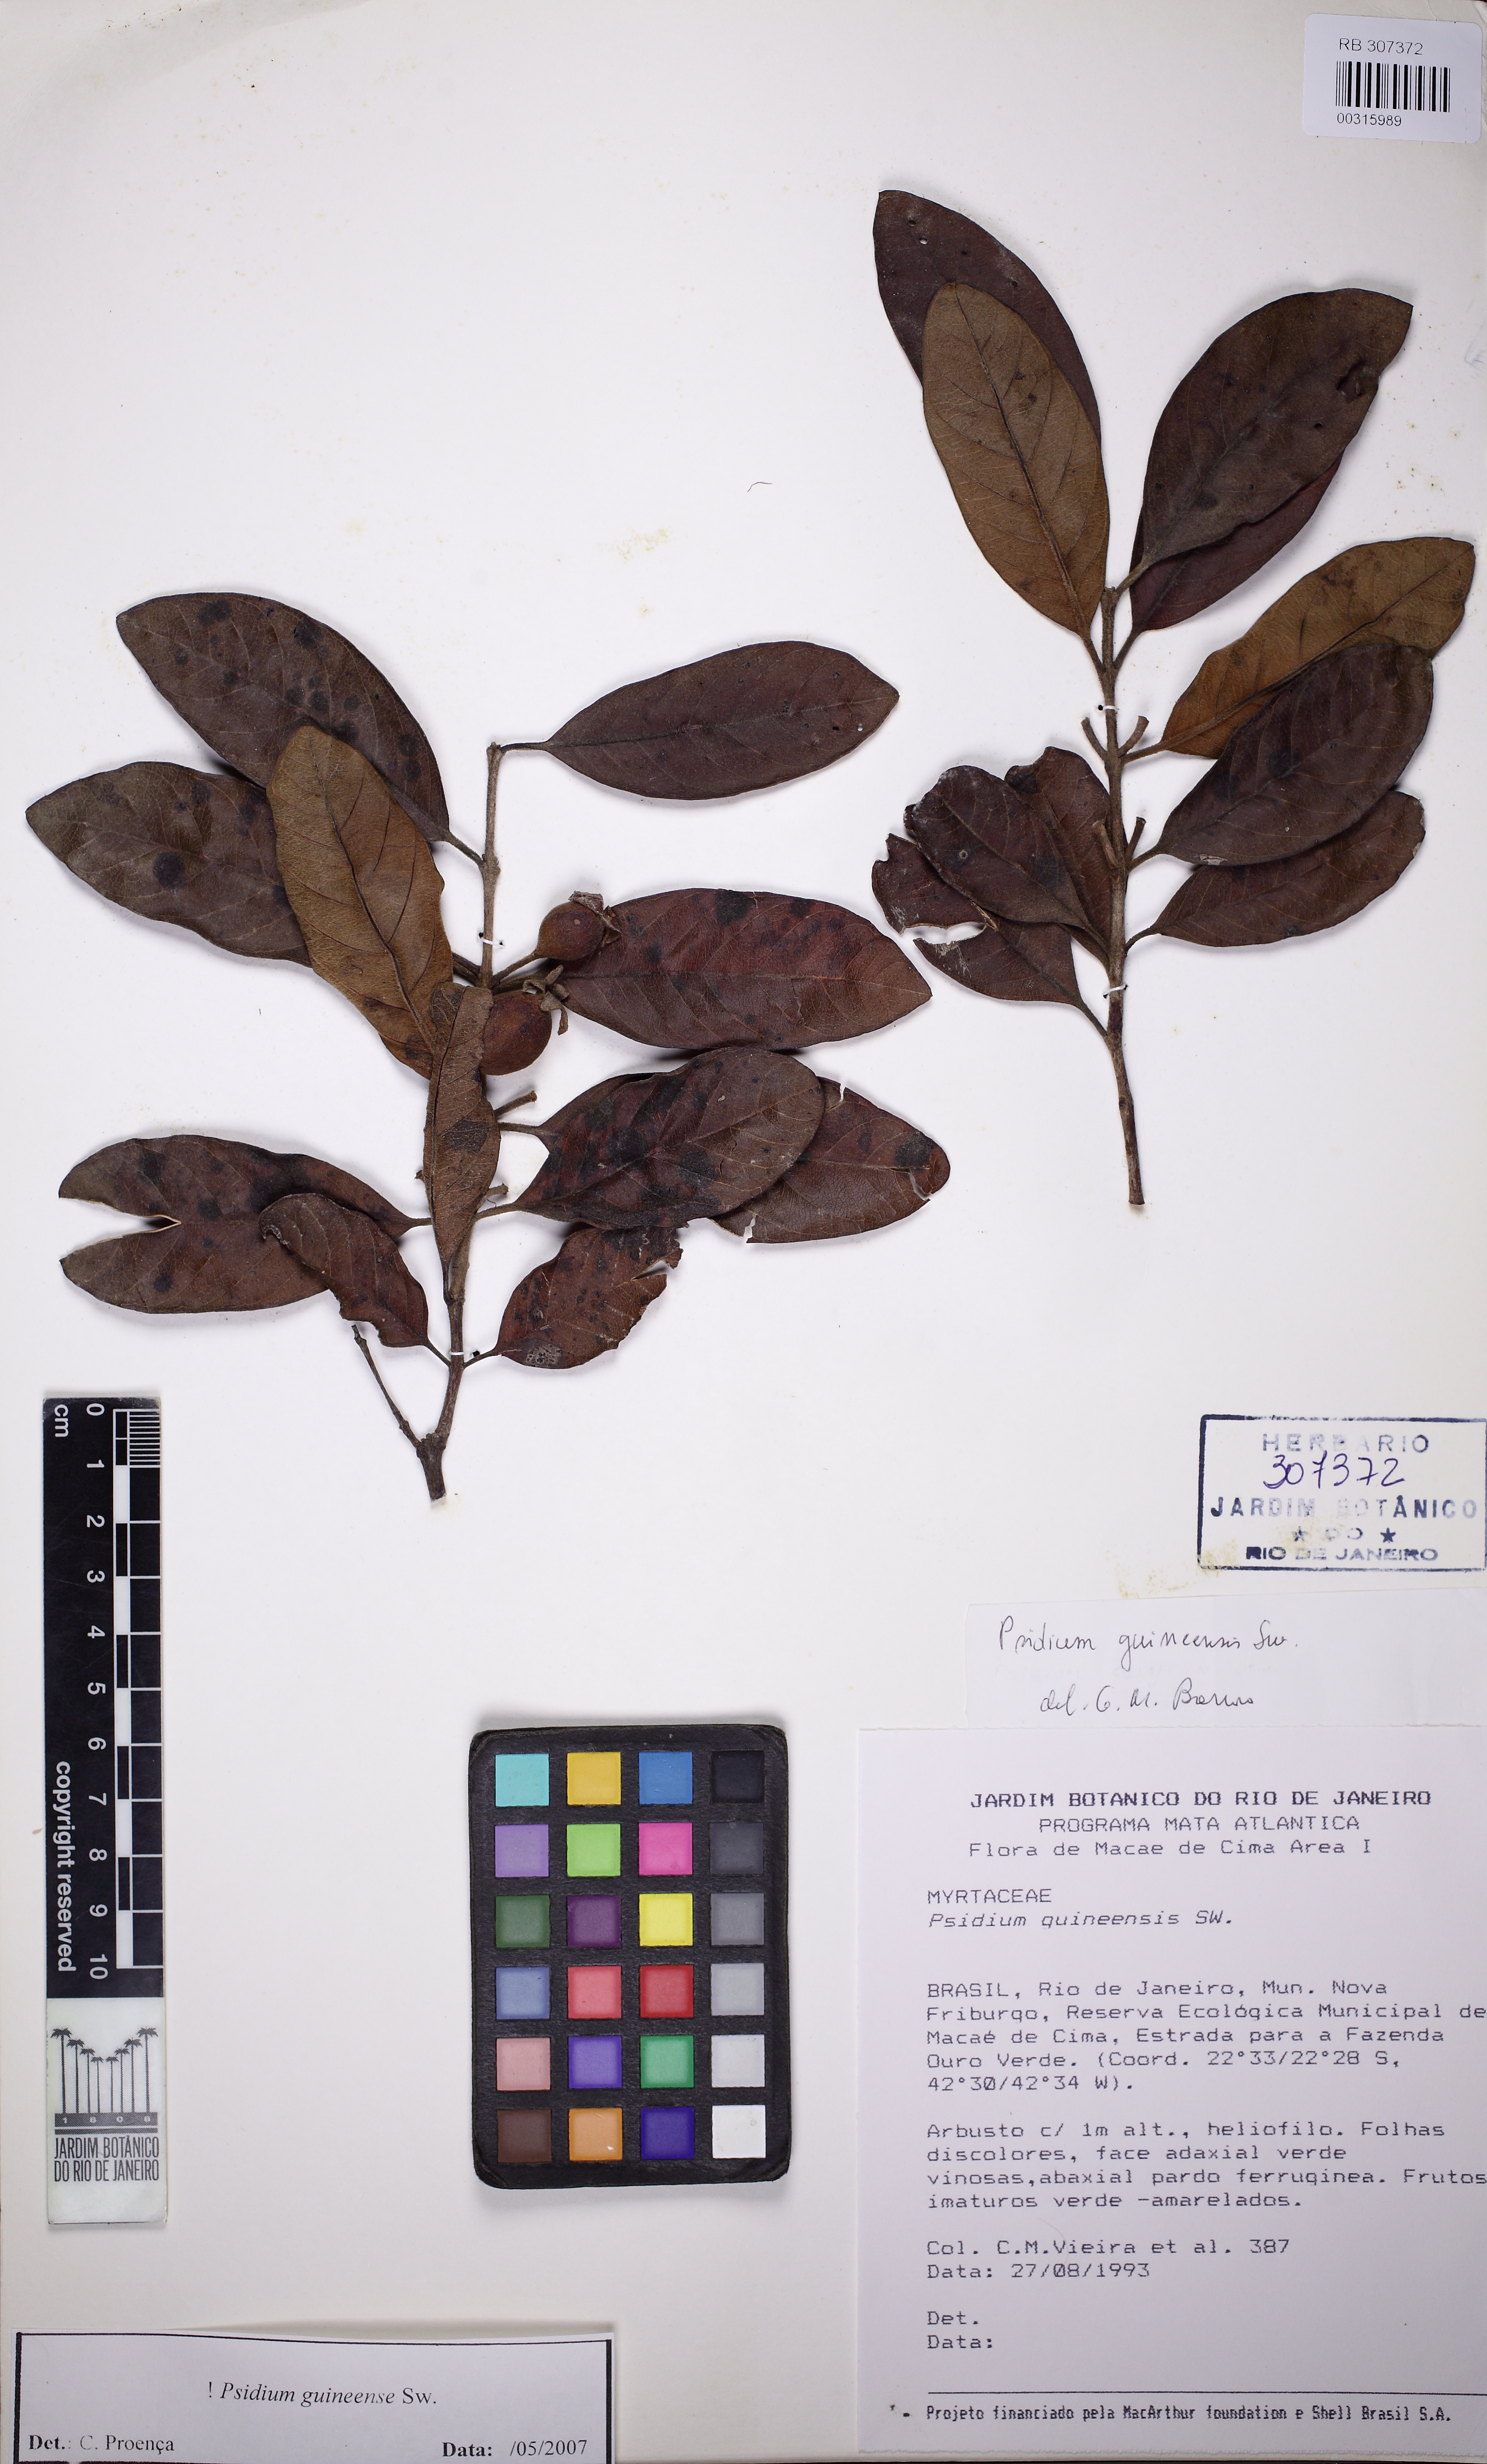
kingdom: Plantae
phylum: Tracheophyta
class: Magnoliopsida
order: Myrtales
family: Myrtaceae
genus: Psidium
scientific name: Psidium guineense
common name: Brazilian guava
